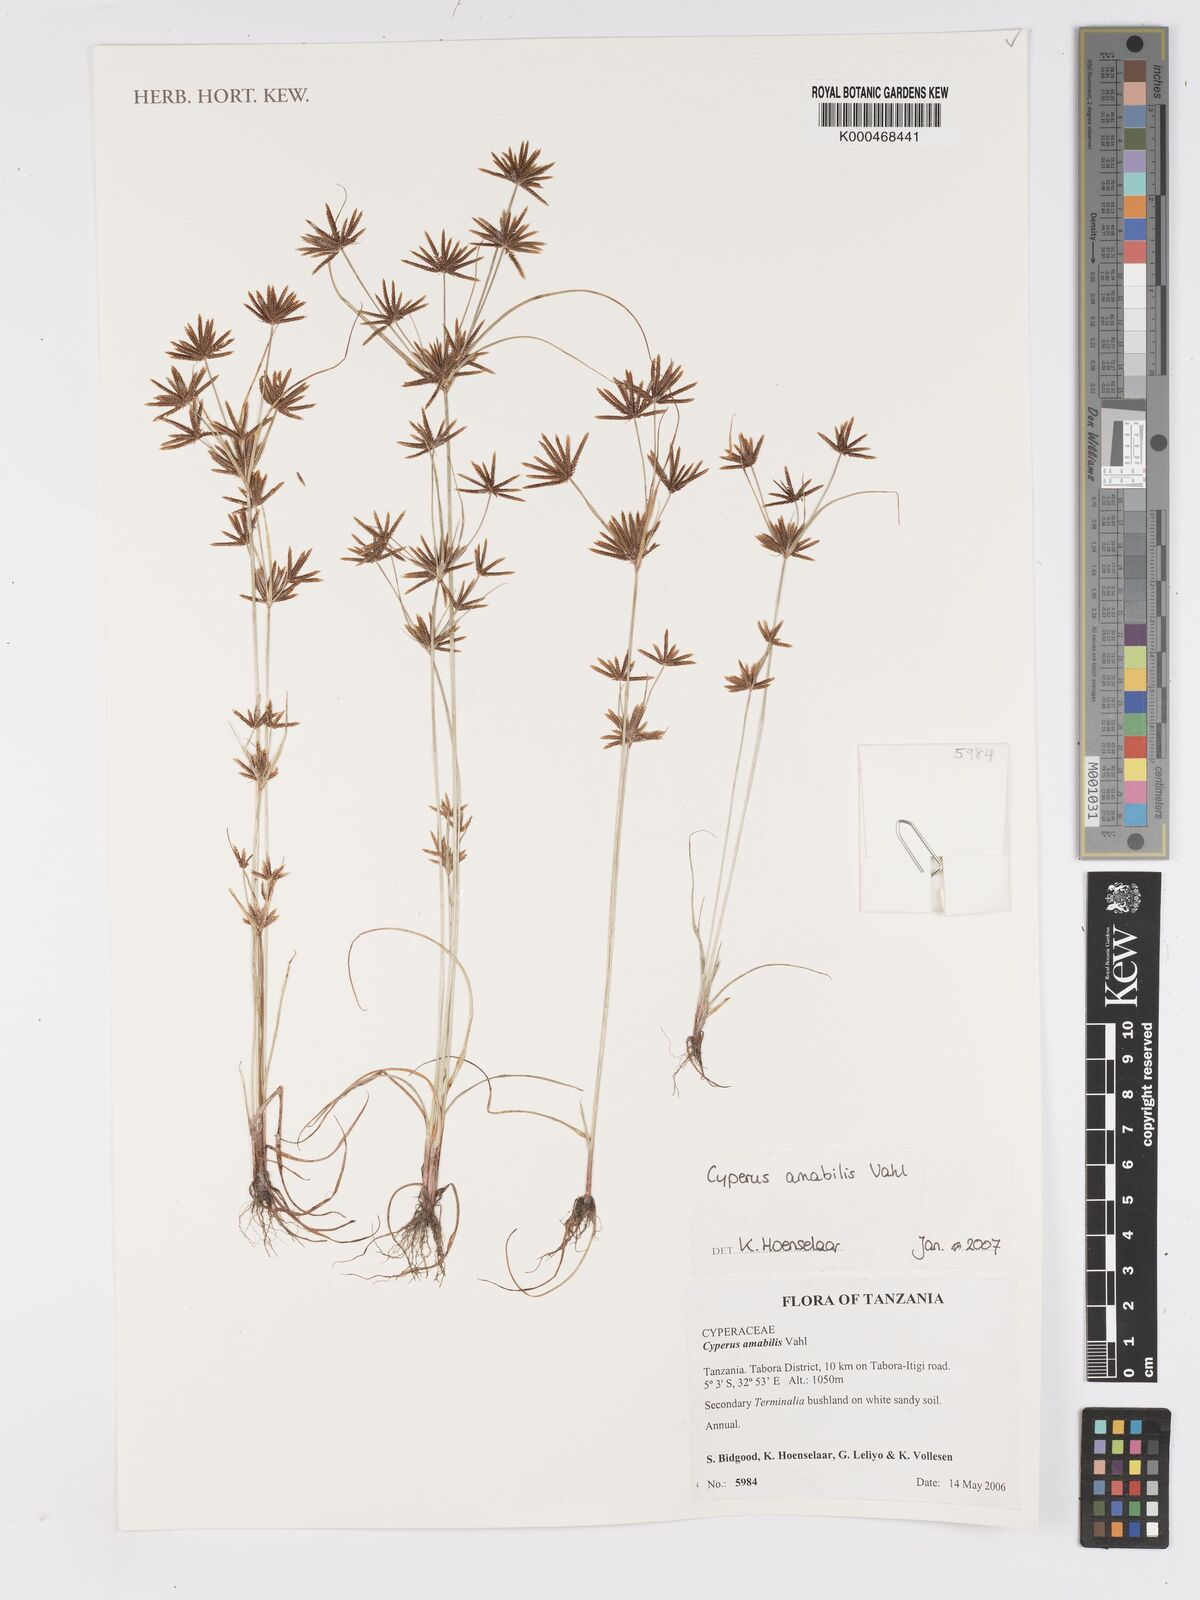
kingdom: Plantae
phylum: Tracheophyta
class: Liliopsida
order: Poales
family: Cyperaceae
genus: Cyperus
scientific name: Cyperus amabilis
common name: Foothill flat sedge
